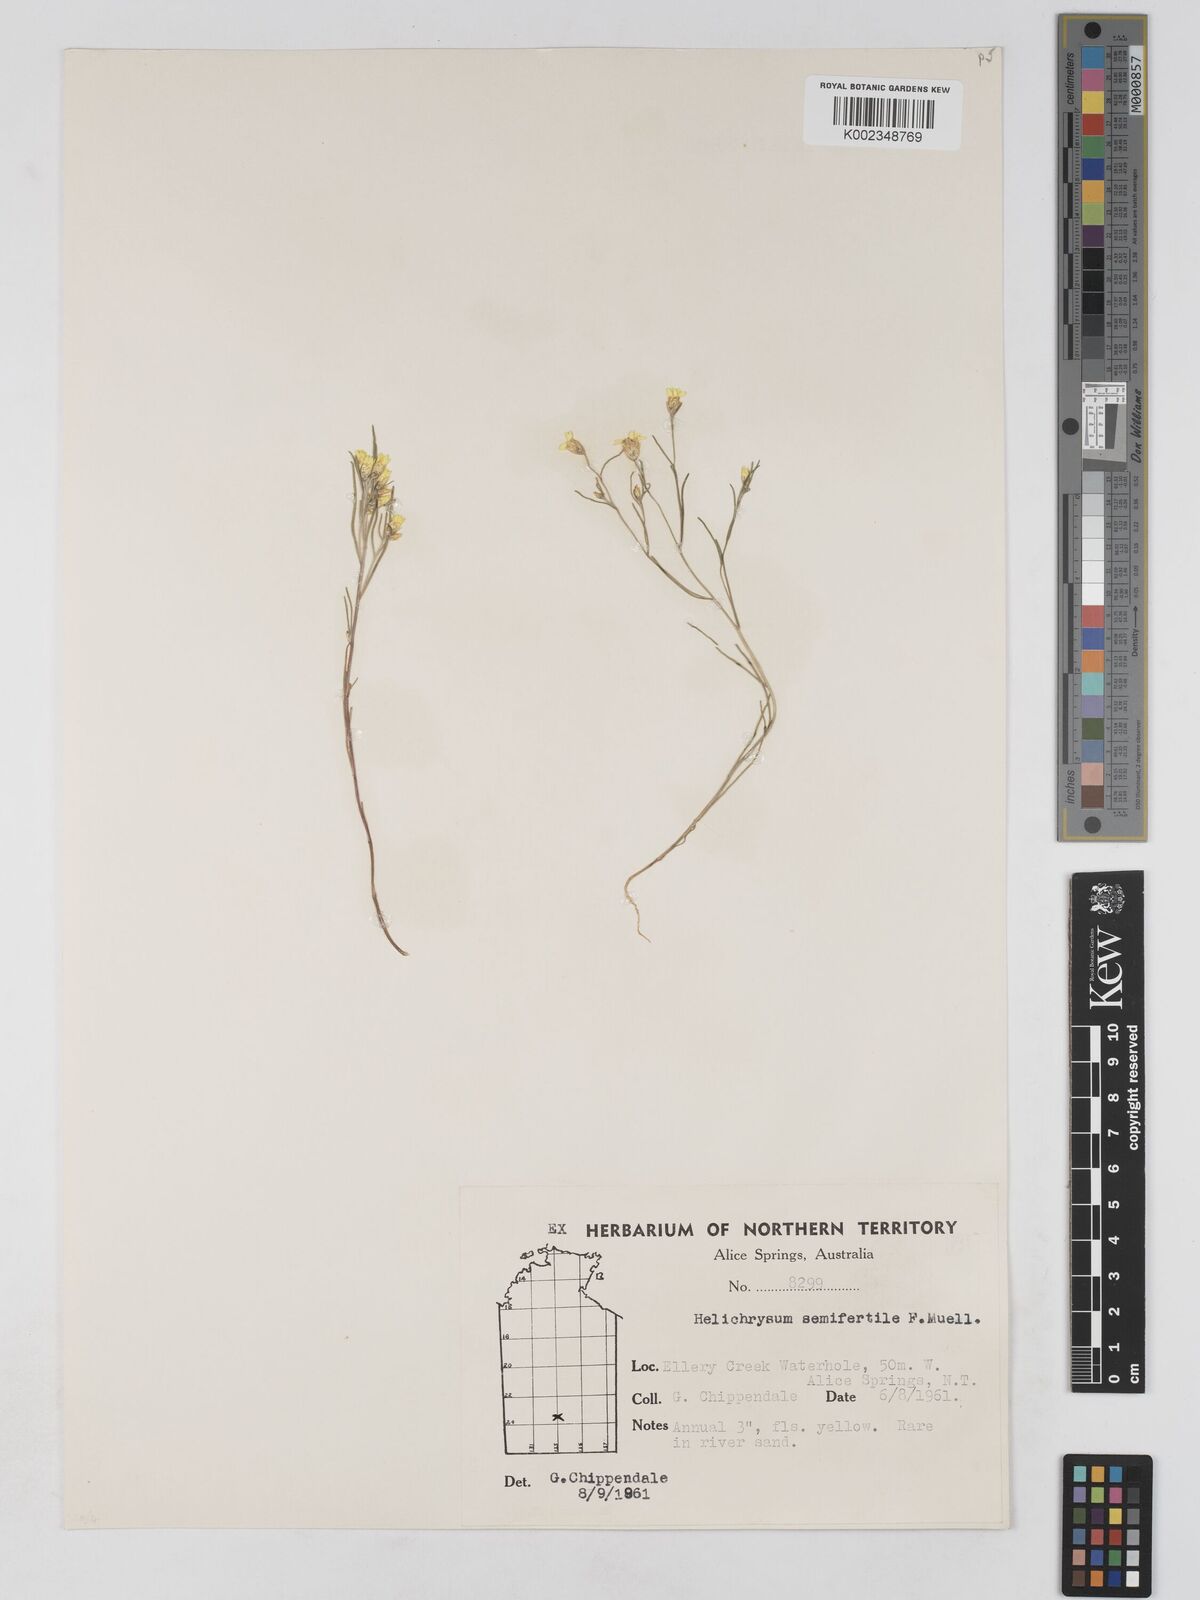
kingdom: Plantae
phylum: Tracheophyta
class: Magnoliopsida
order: Asterales
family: Asteraceae
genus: Schoenia
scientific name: Schoenia ramosissima
